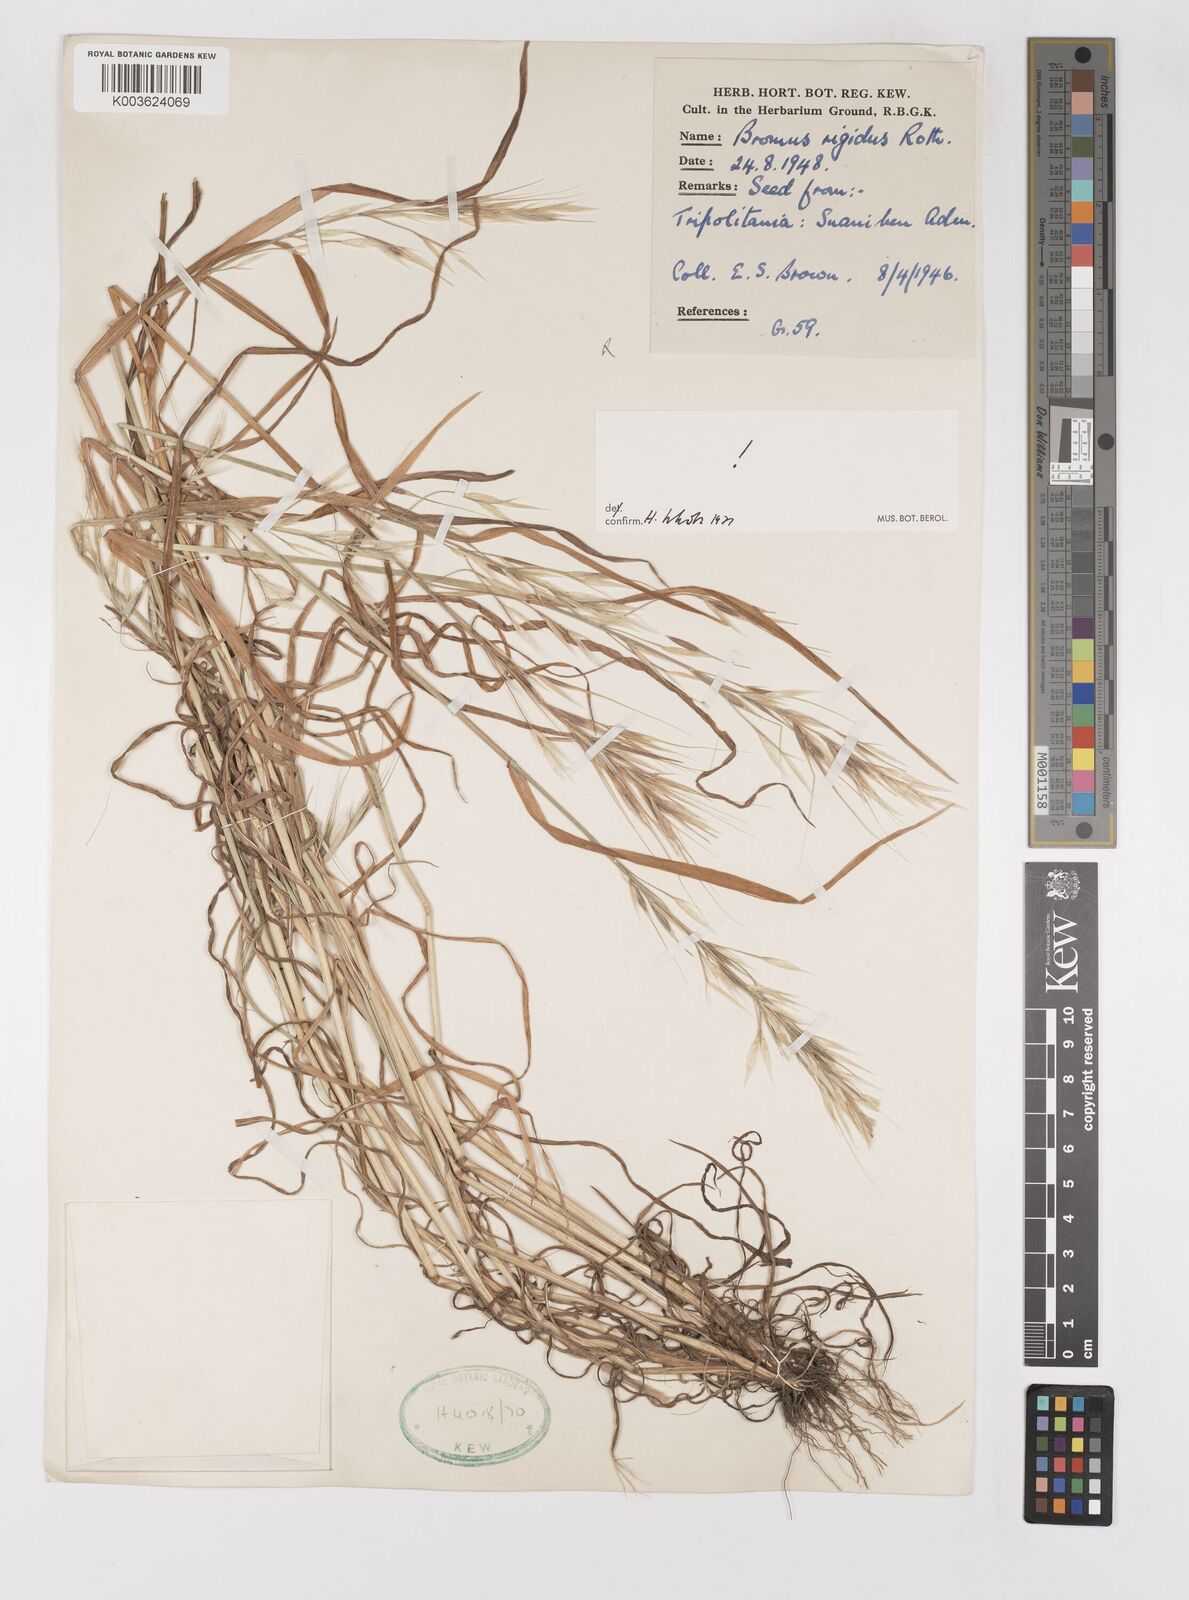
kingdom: Plantae
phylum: Tracheophyta
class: Liliopsida
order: Poales
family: Poaceae
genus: Bromus
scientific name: Bromus madritensis
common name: Compact brome
